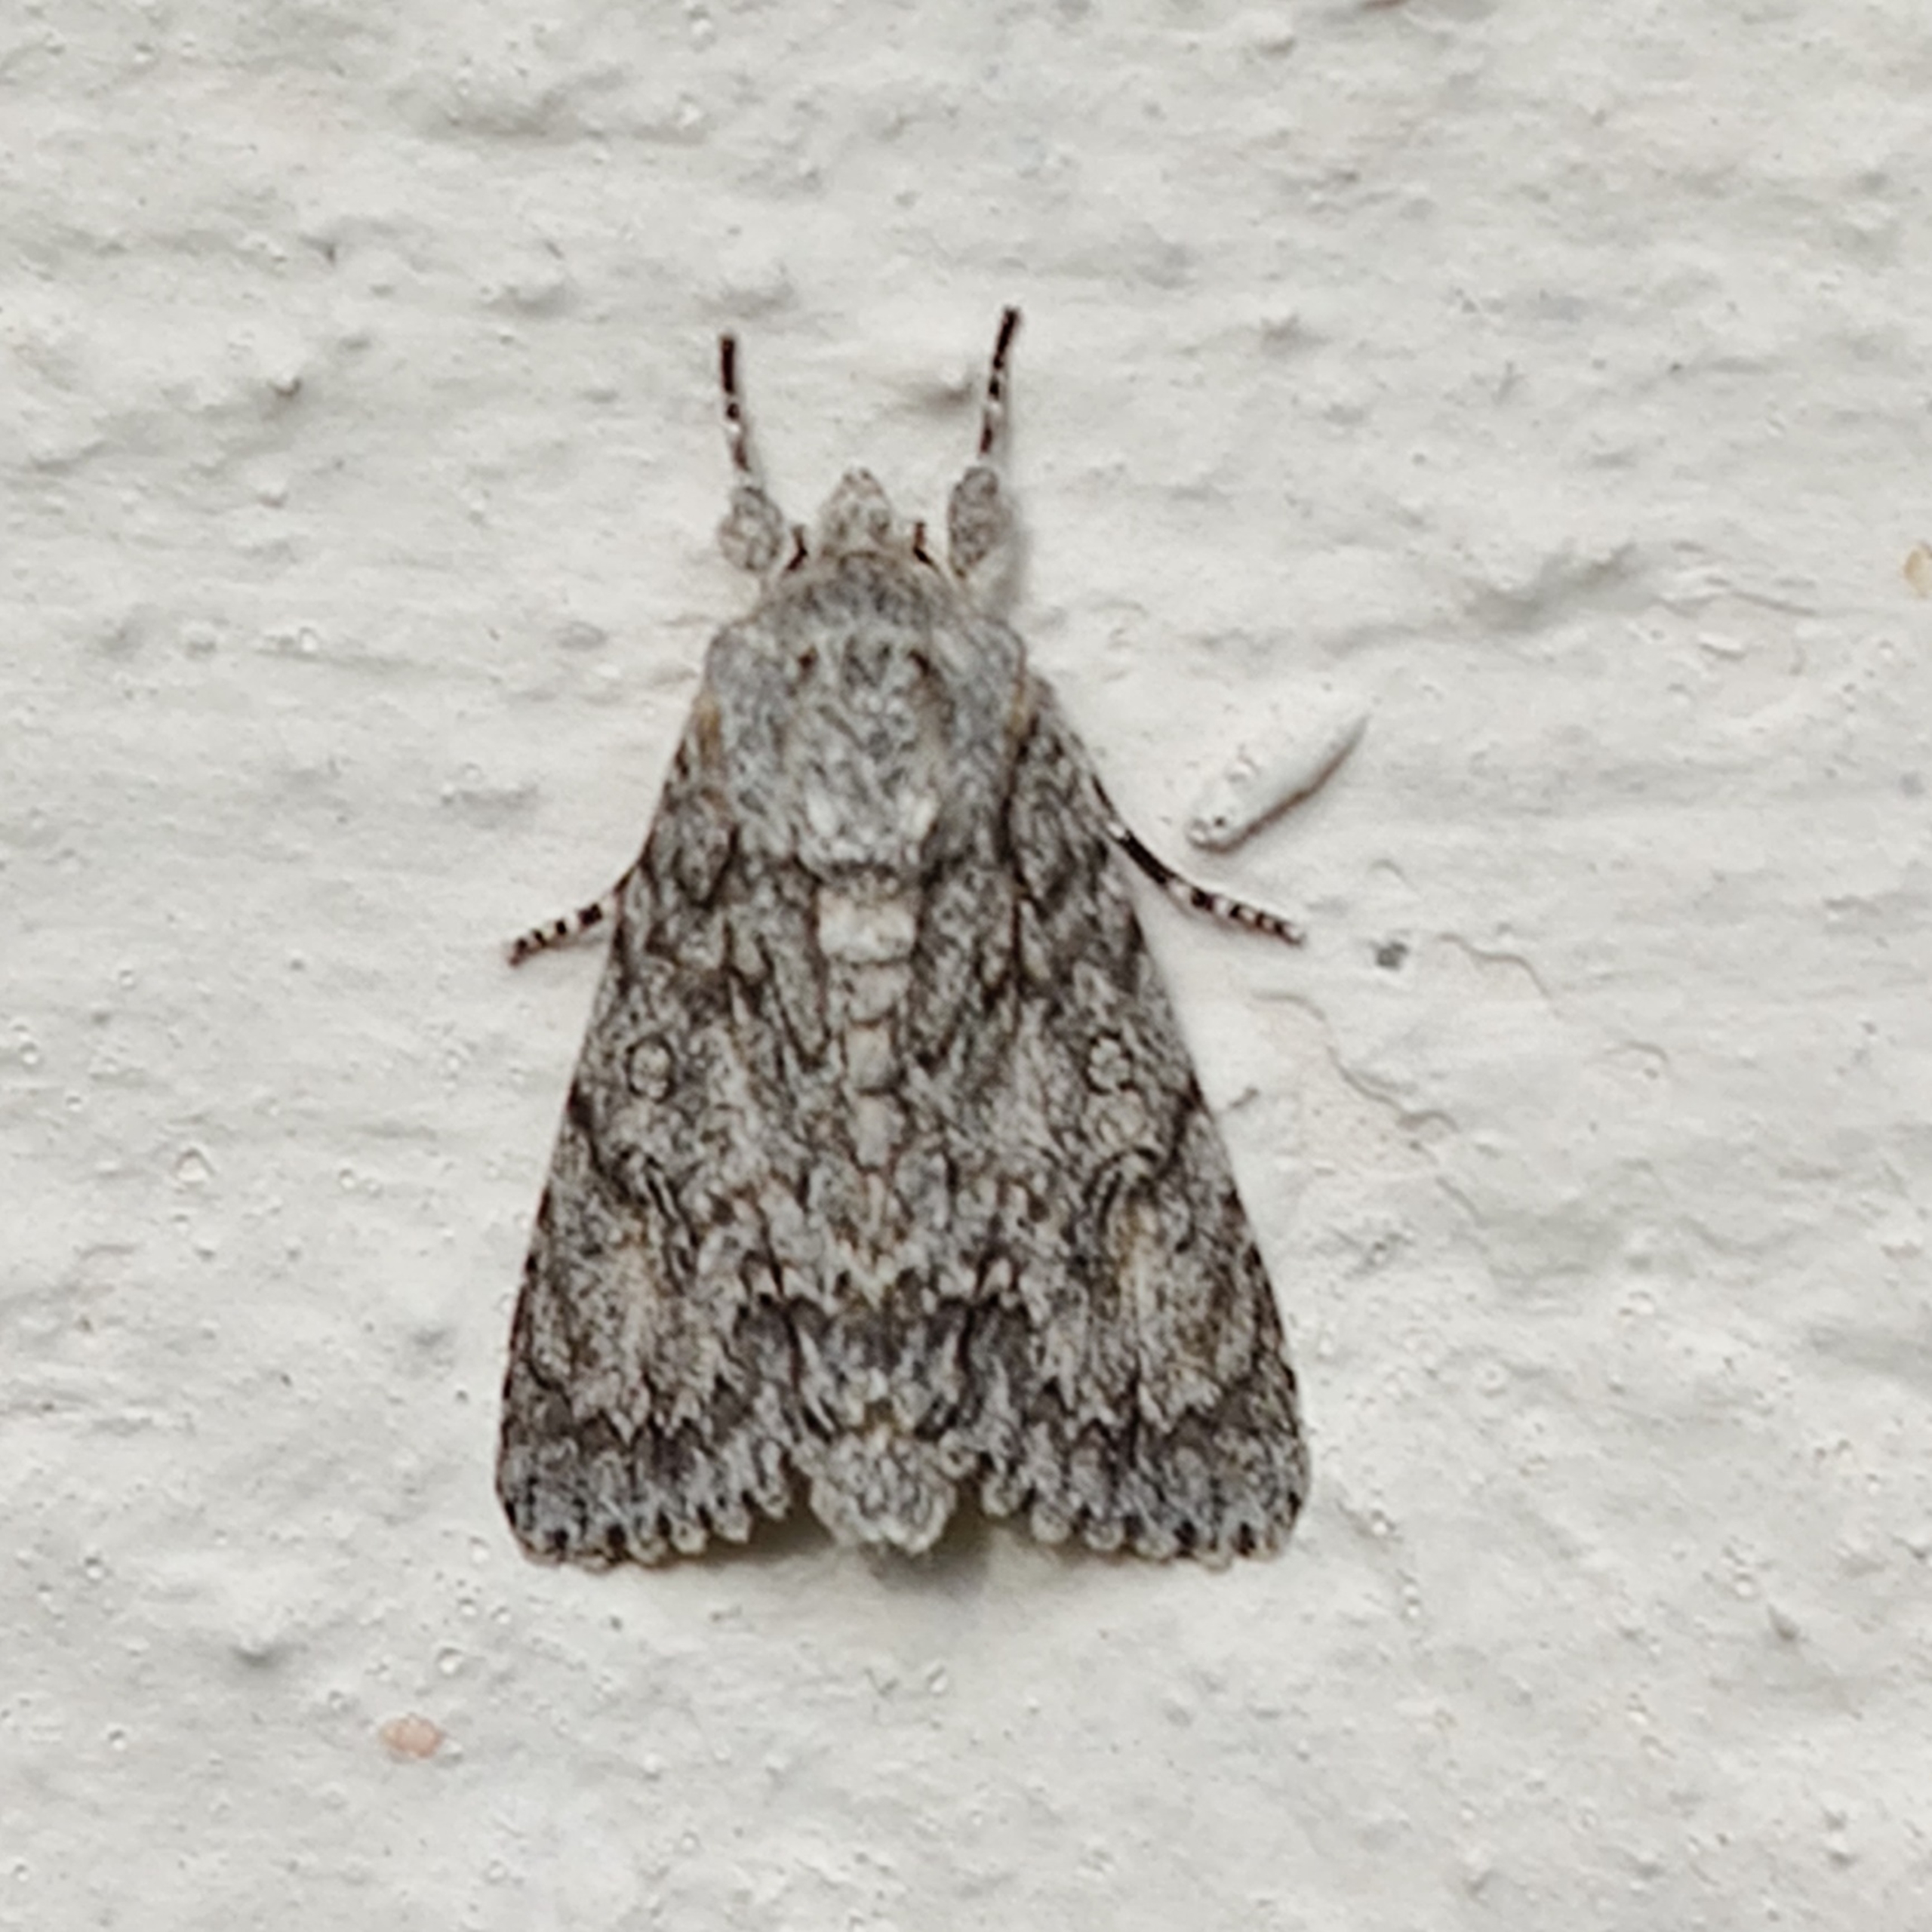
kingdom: Animalia
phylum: Arthropoda
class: Insecta
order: Lepidoptera
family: Noctuidae
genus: Acronicta
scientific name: Acronicta aceris
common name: Ahornugle
